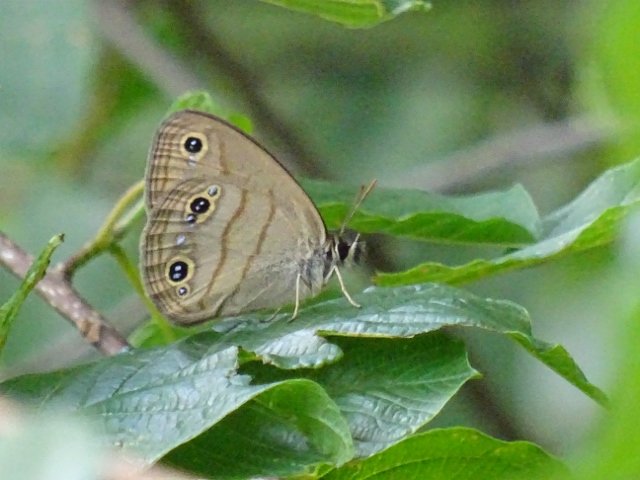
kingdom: Animalia
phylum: Arthropoda
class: Insecta
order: Lepidoptera
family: Nymphalidae
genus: Euptychia
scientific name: Euptychia cymela
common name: Little Wood Satyr
